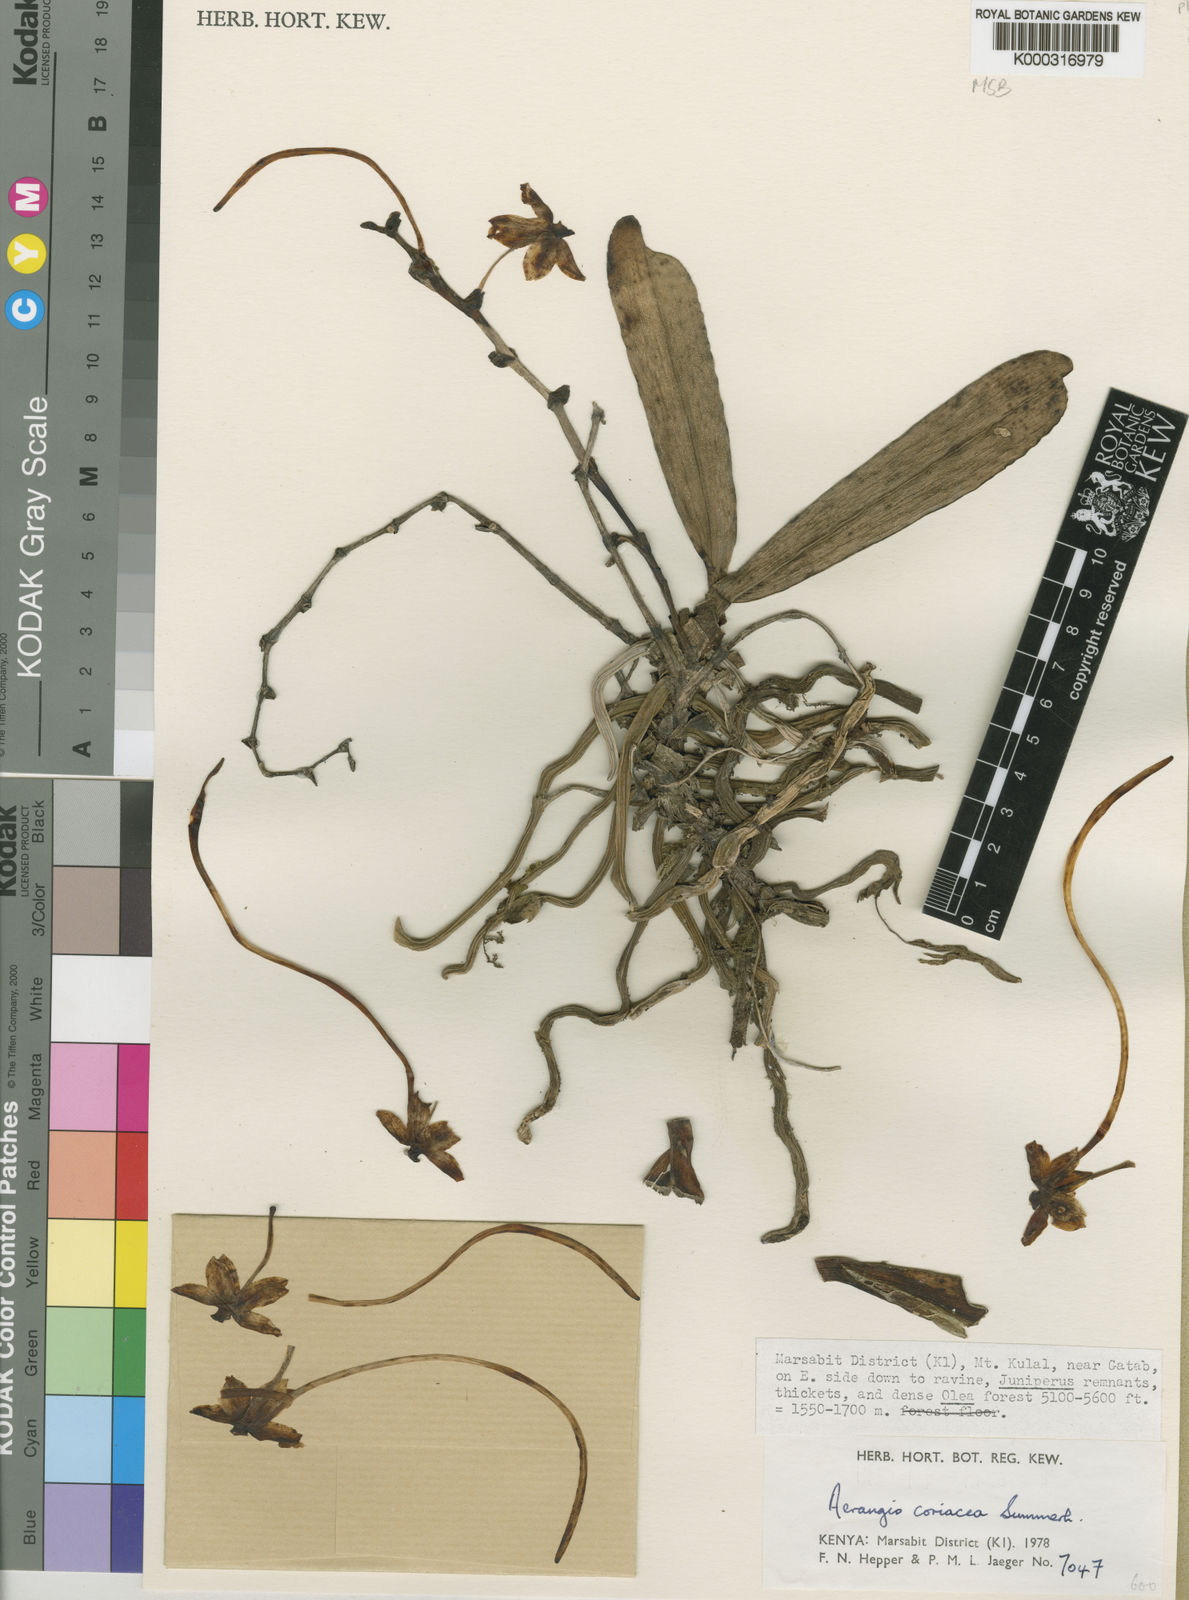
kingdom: Plantae
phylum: Tracheophyta
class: Liliopsida
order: Asparagales
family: Orchidaceae
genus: Aerangis
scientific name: Aerangis coriacea
